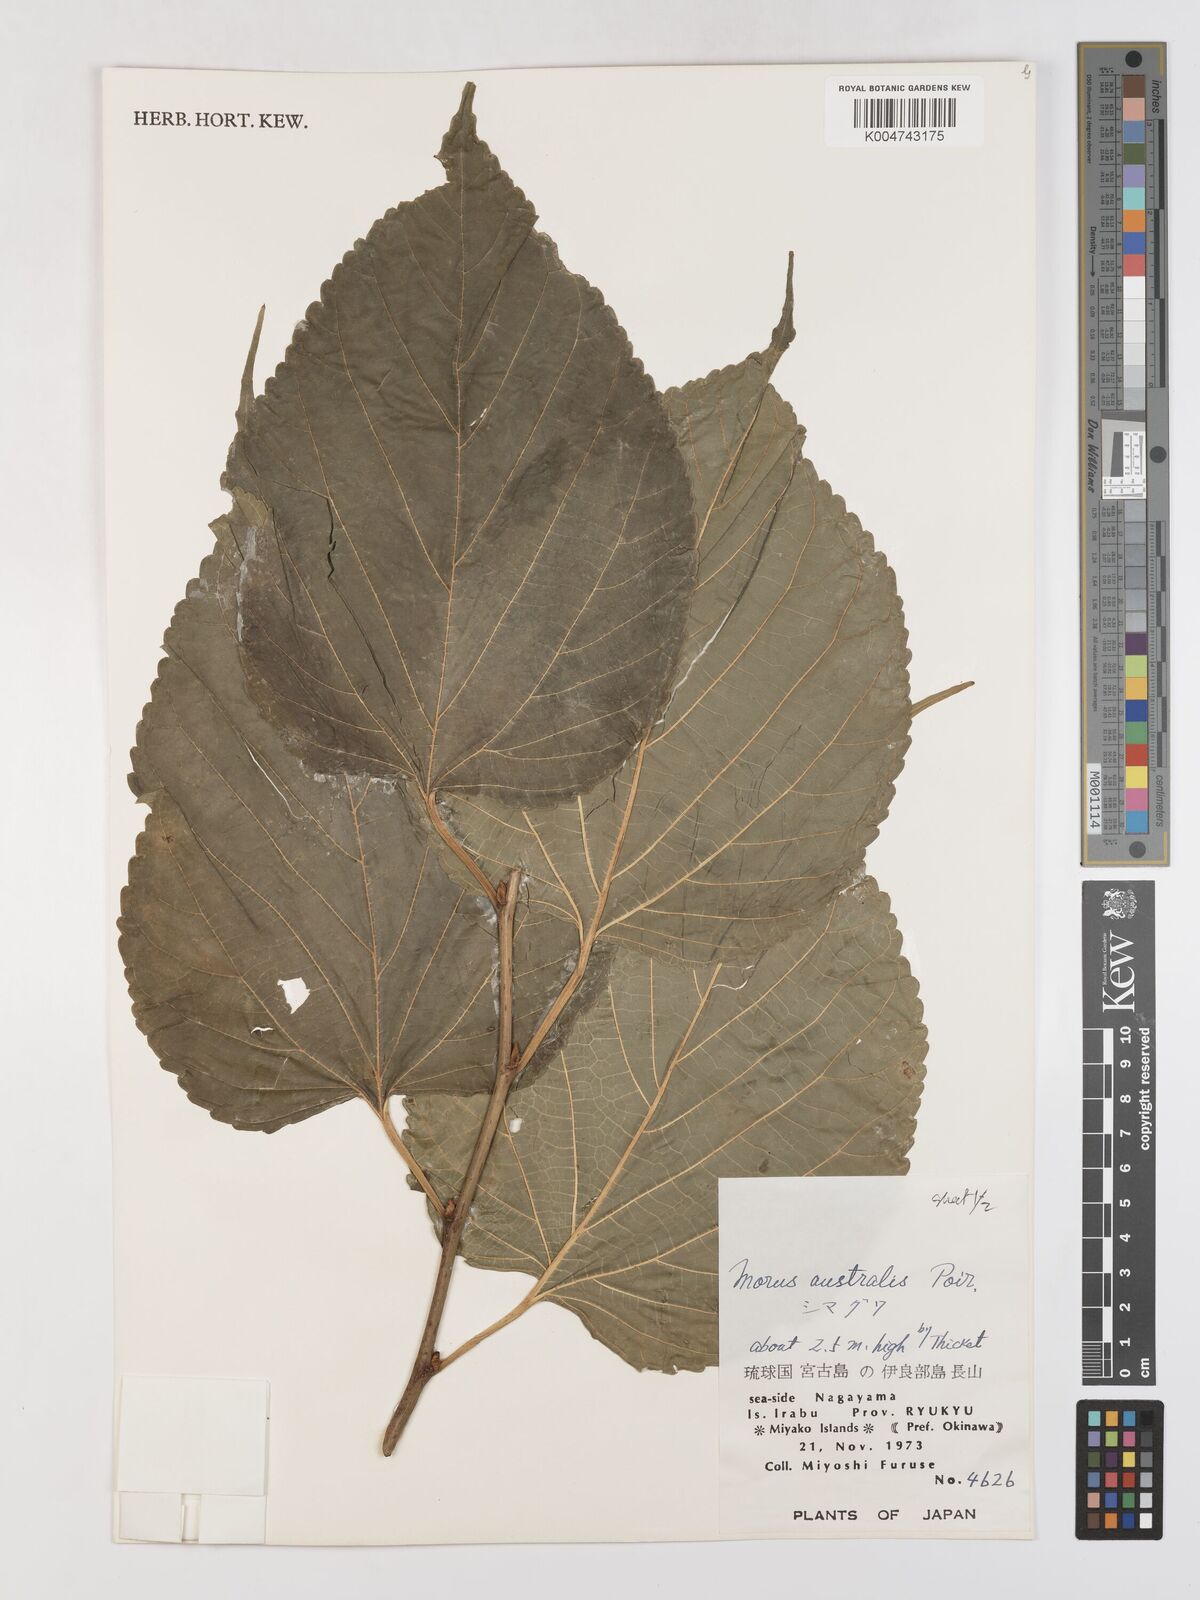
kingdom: Plantae
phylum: Tracheophyta
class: Magnoliopsida
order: Rosales
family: Moraceae
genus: Morus
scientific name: Morus indica
